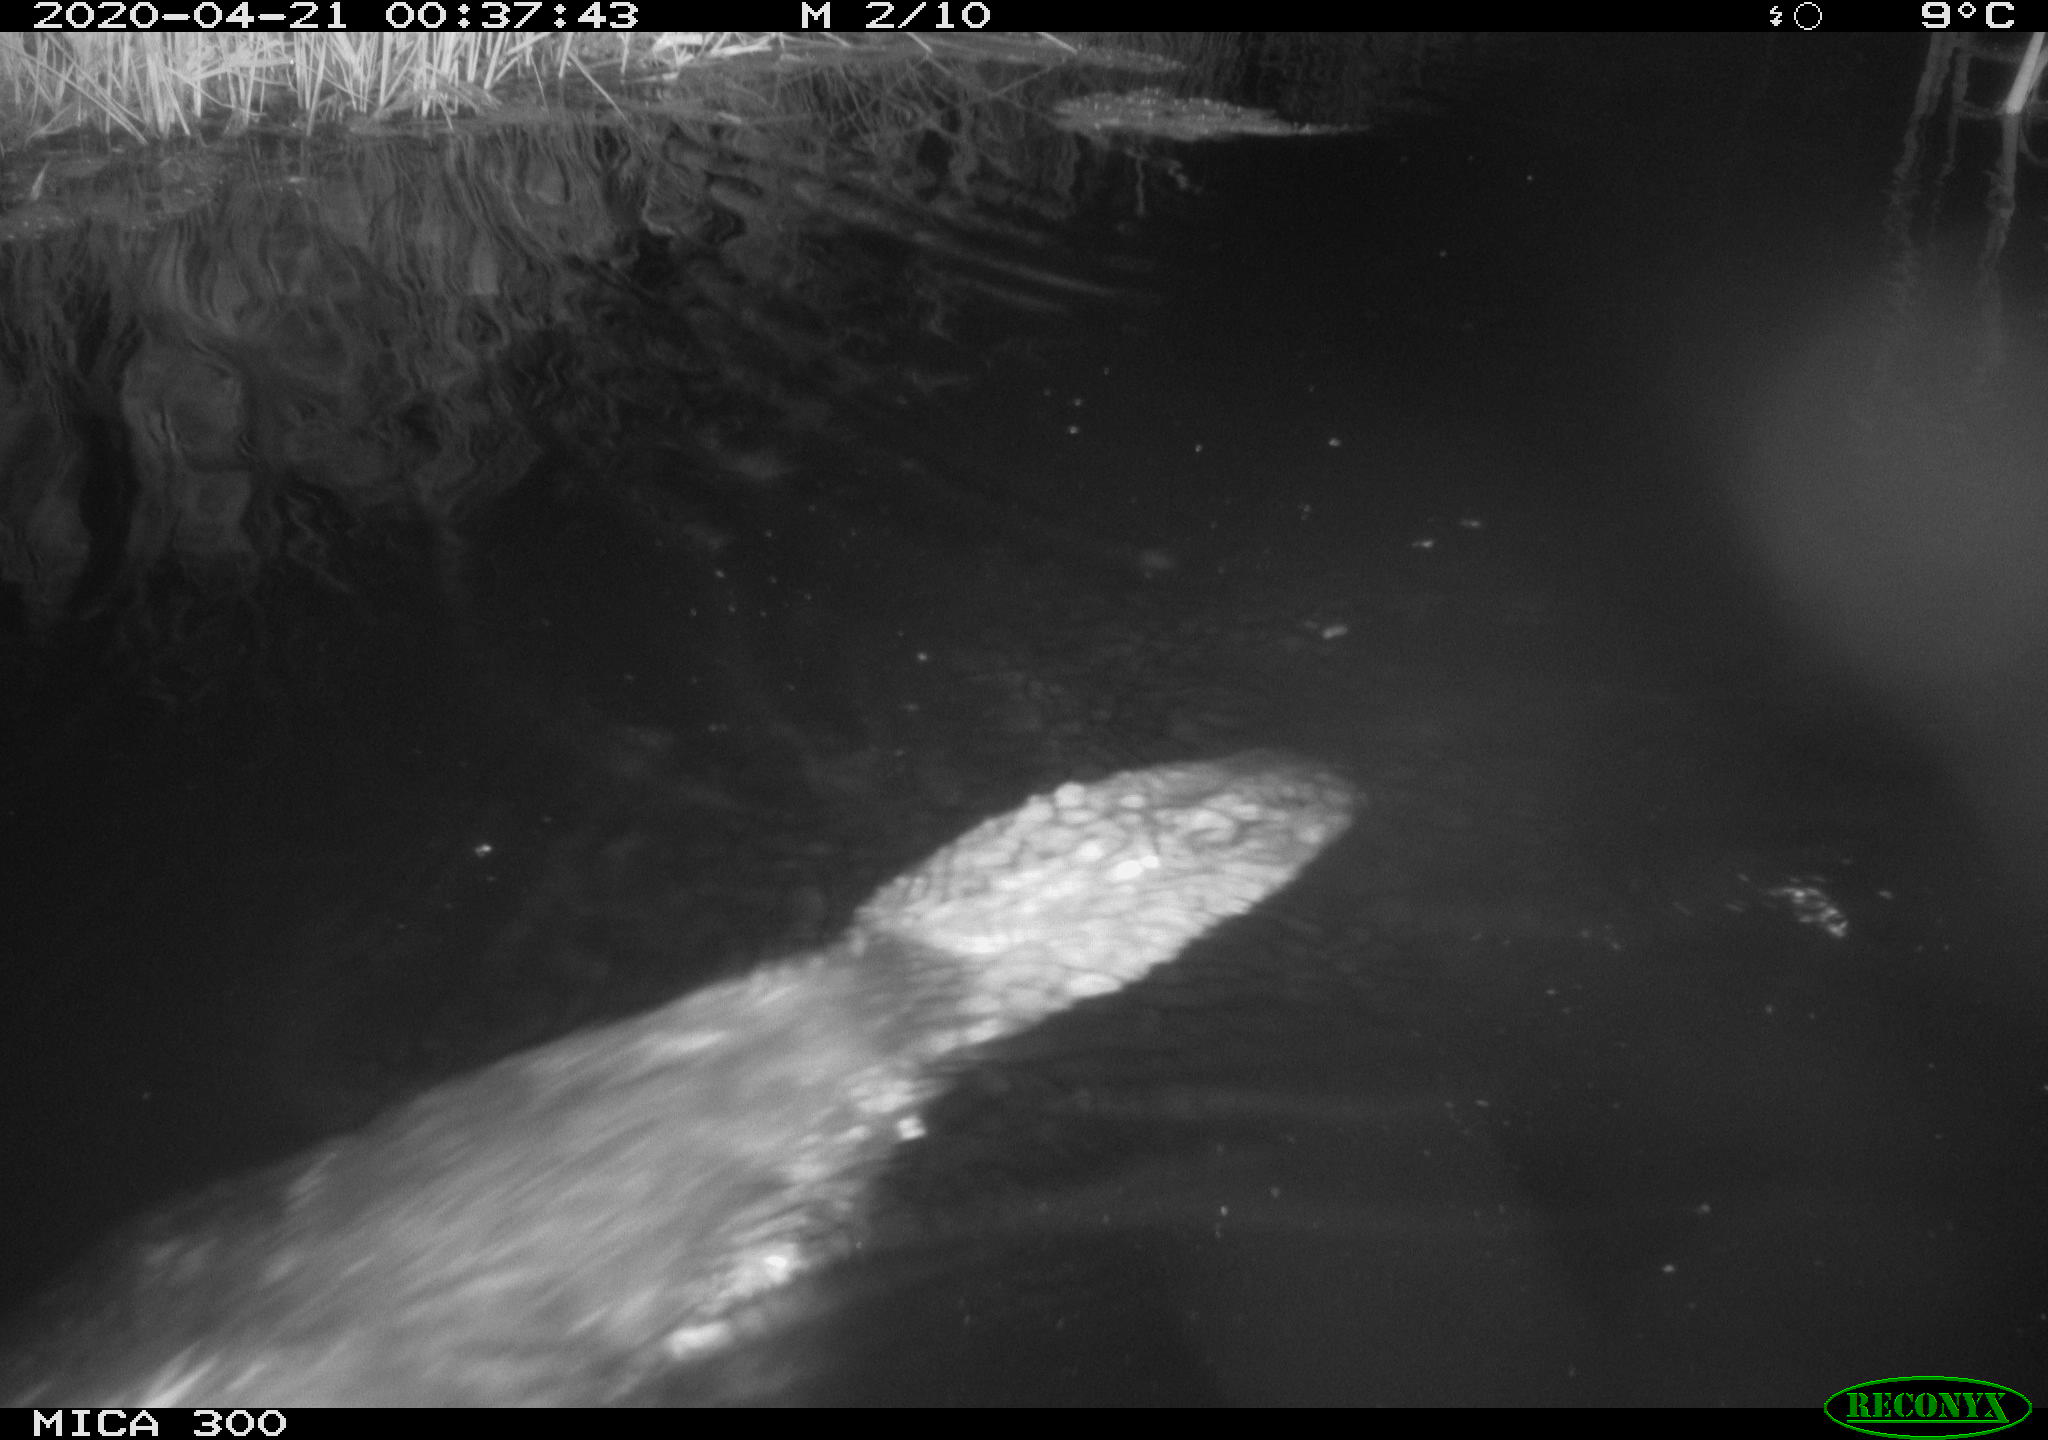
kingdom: Animalia
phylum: Chordata
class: Mammalia
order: Rodentia
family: Castoridae
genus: Castor
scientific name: Castor fiber
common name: Eurasian beaver
